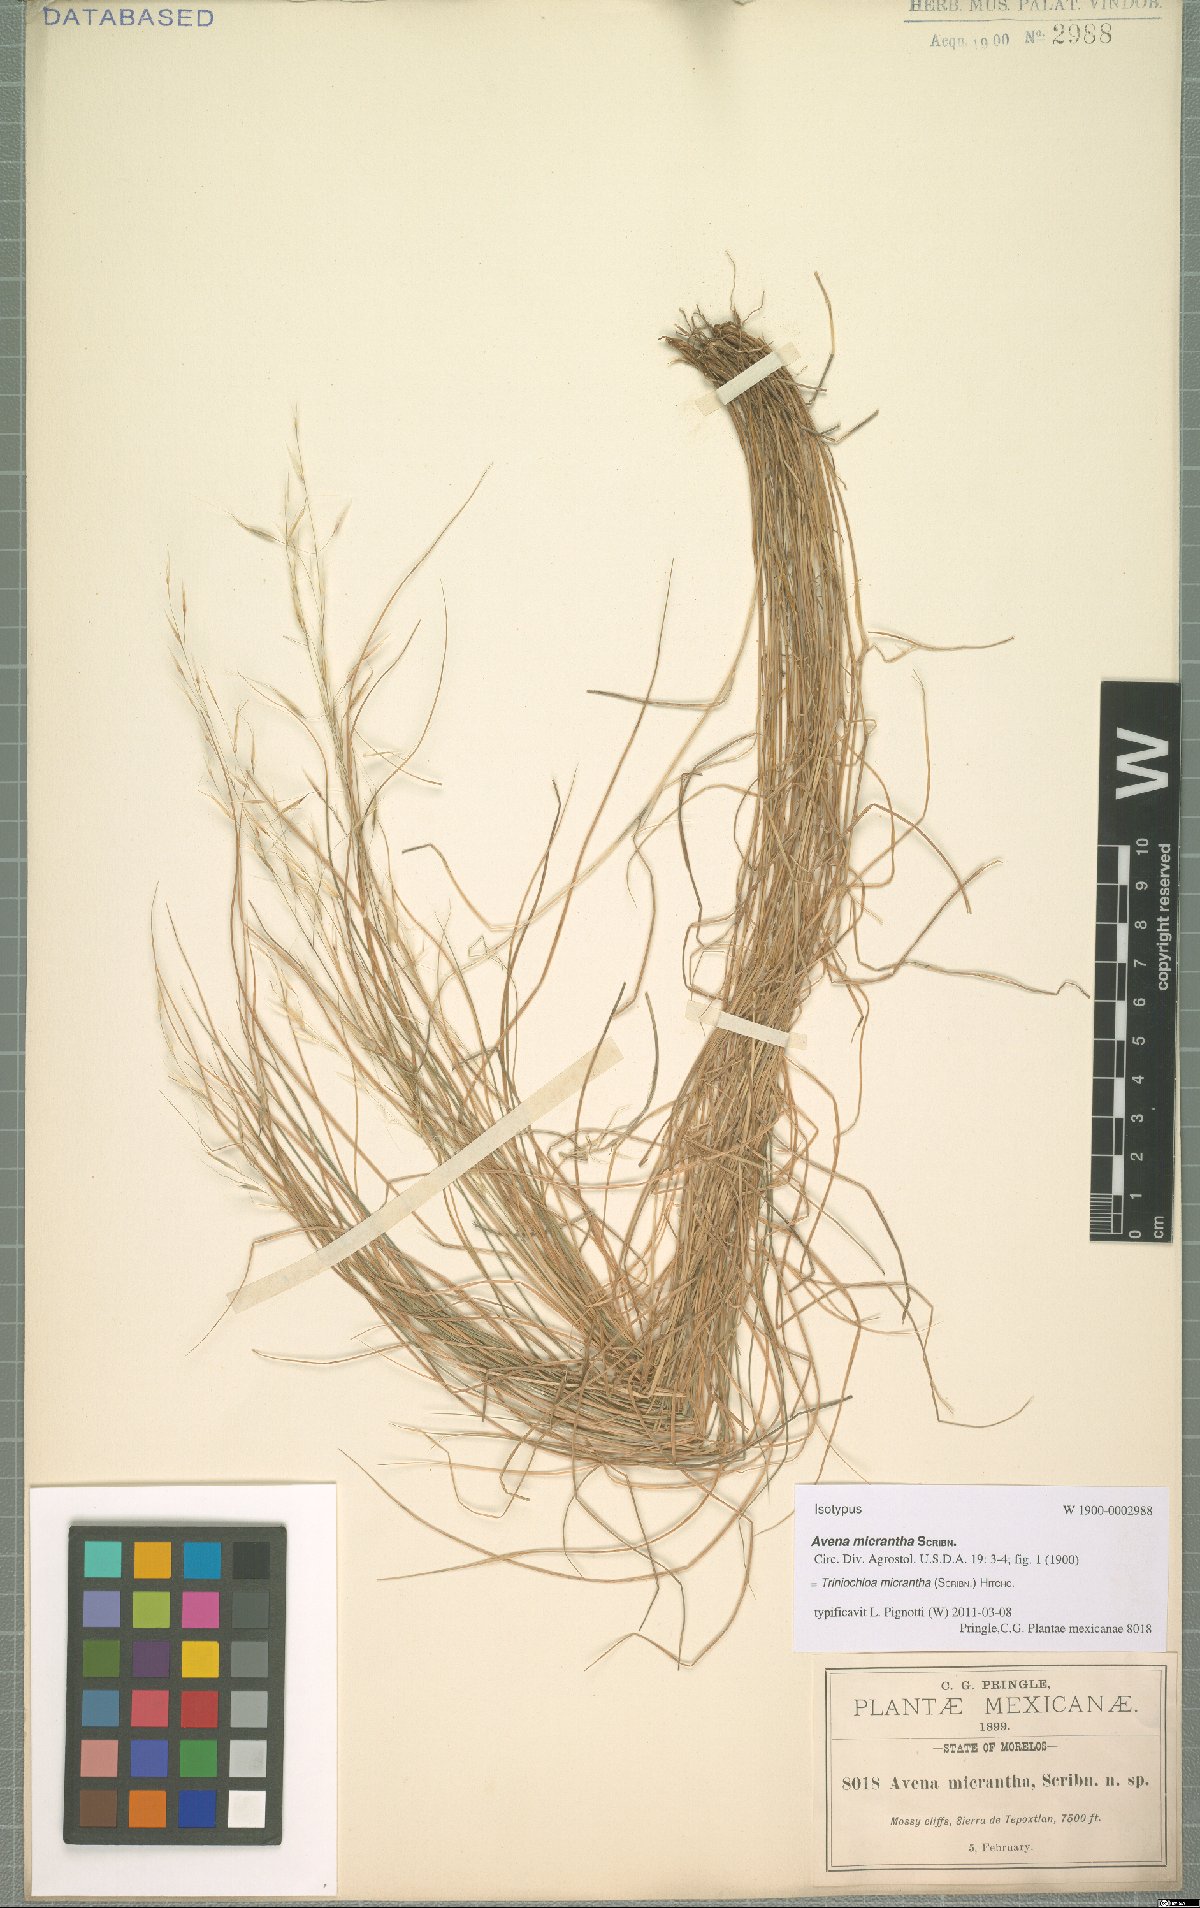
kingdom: Plantae
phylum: Tracheophyta
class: Liliopsida
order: Poales
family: Poaceae
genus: Triniochloa
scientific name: Triniochloa micrantha
